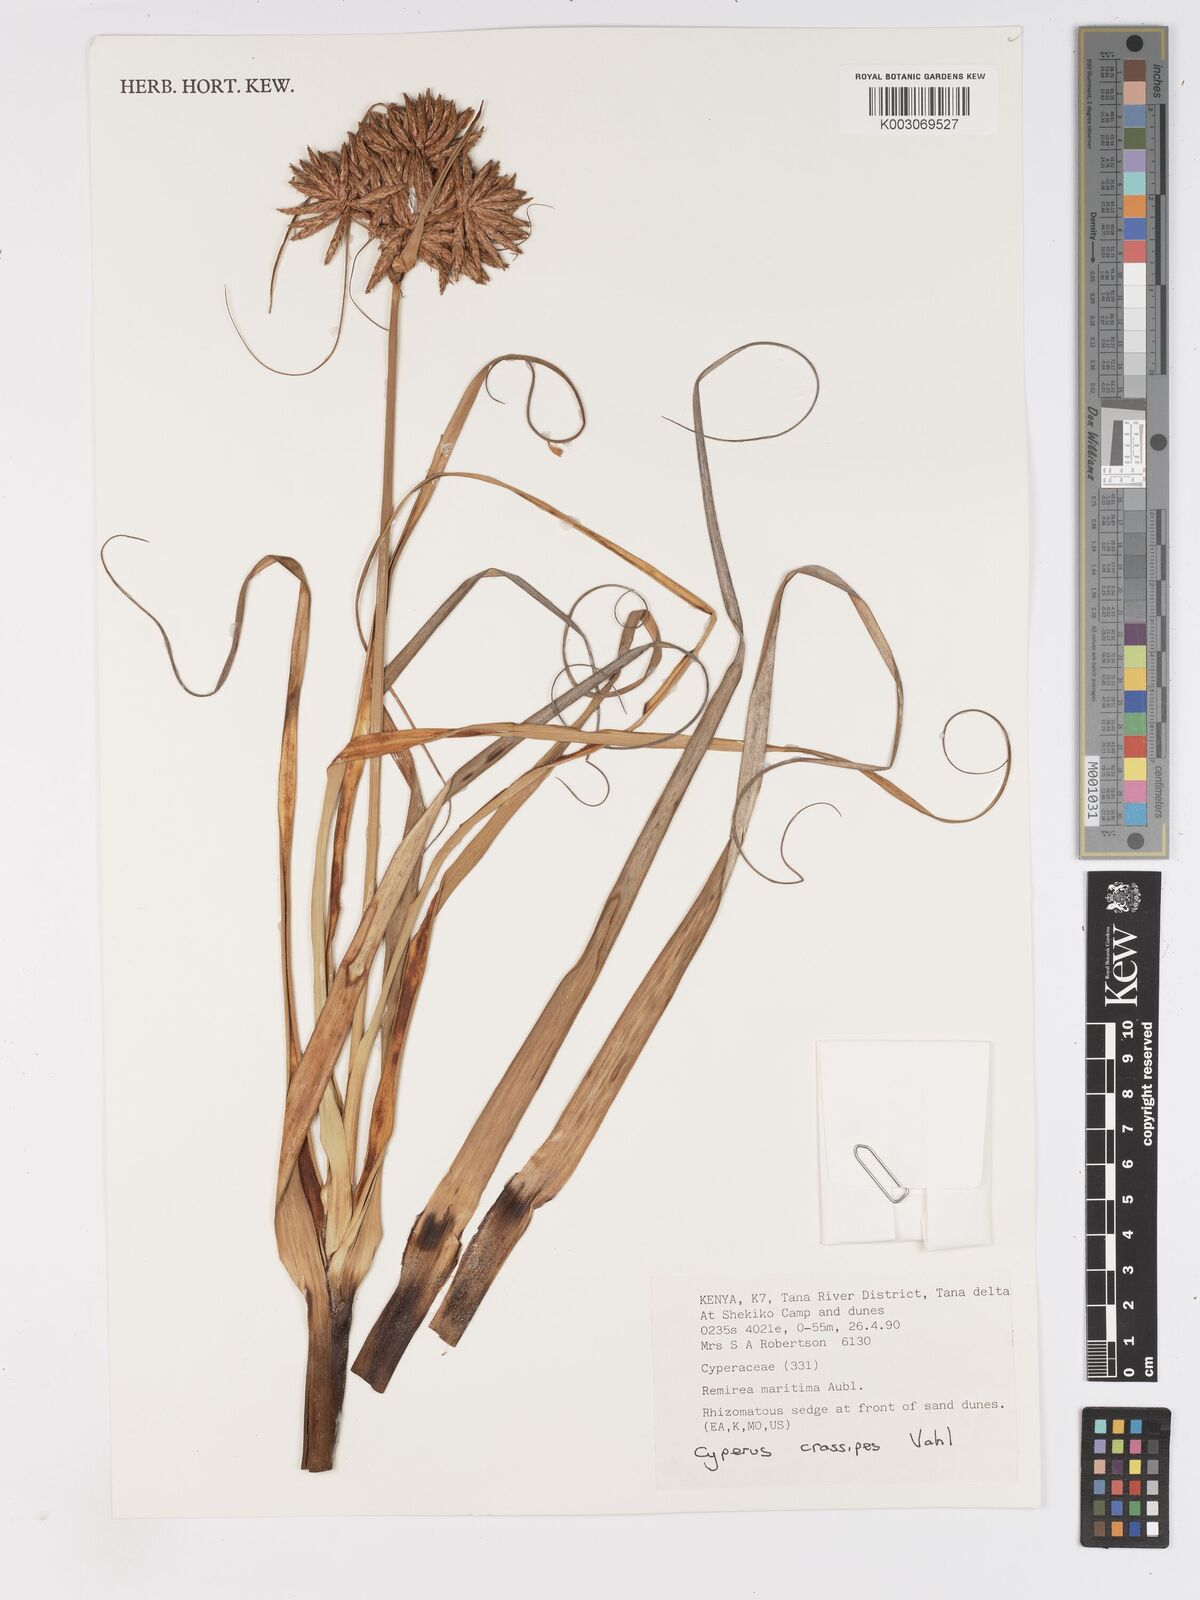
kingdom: Plantae
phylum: Tracheophyta
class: Liliopsida
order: Poales
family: Cyperaceae
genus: Cyperus
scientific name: Cyperus crassipes
